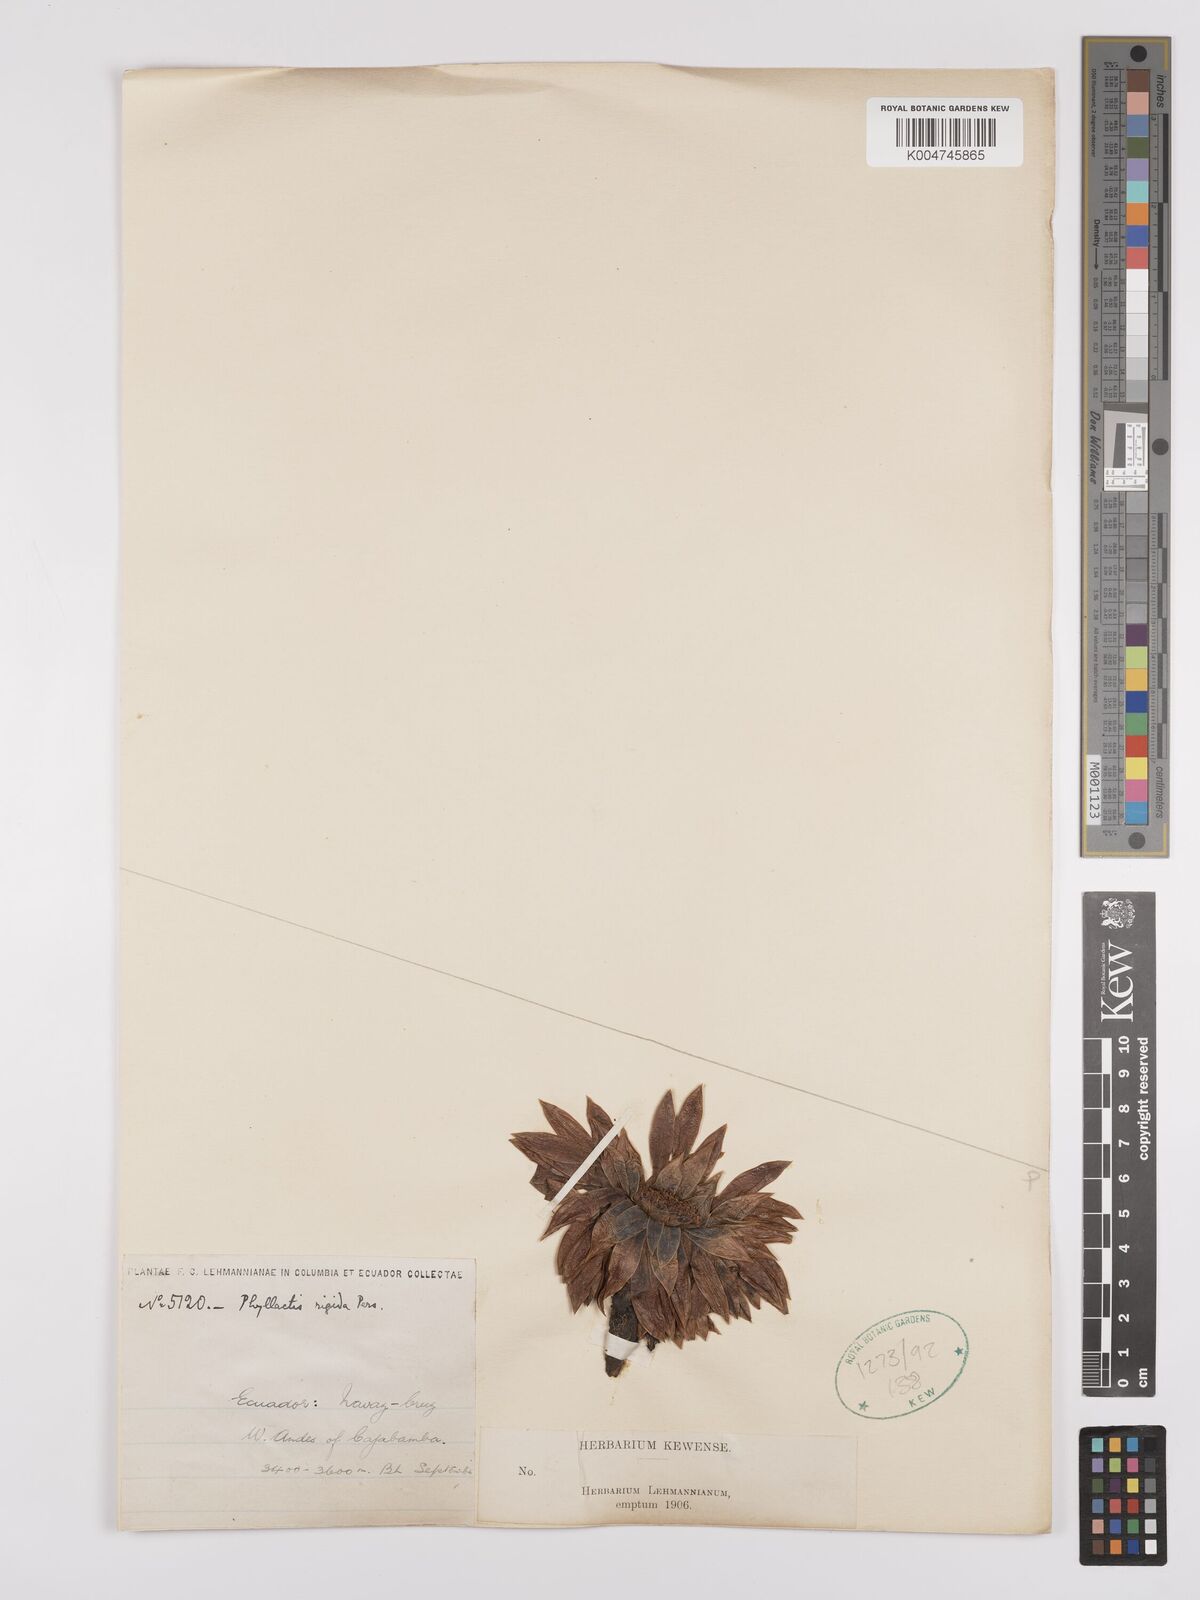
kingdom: Plantae
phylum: Tracheophyta
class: Magnoliopsida
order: Dipsacales
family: Caprifoliaceae
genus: Valeriana
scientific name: Valeriana rigida
